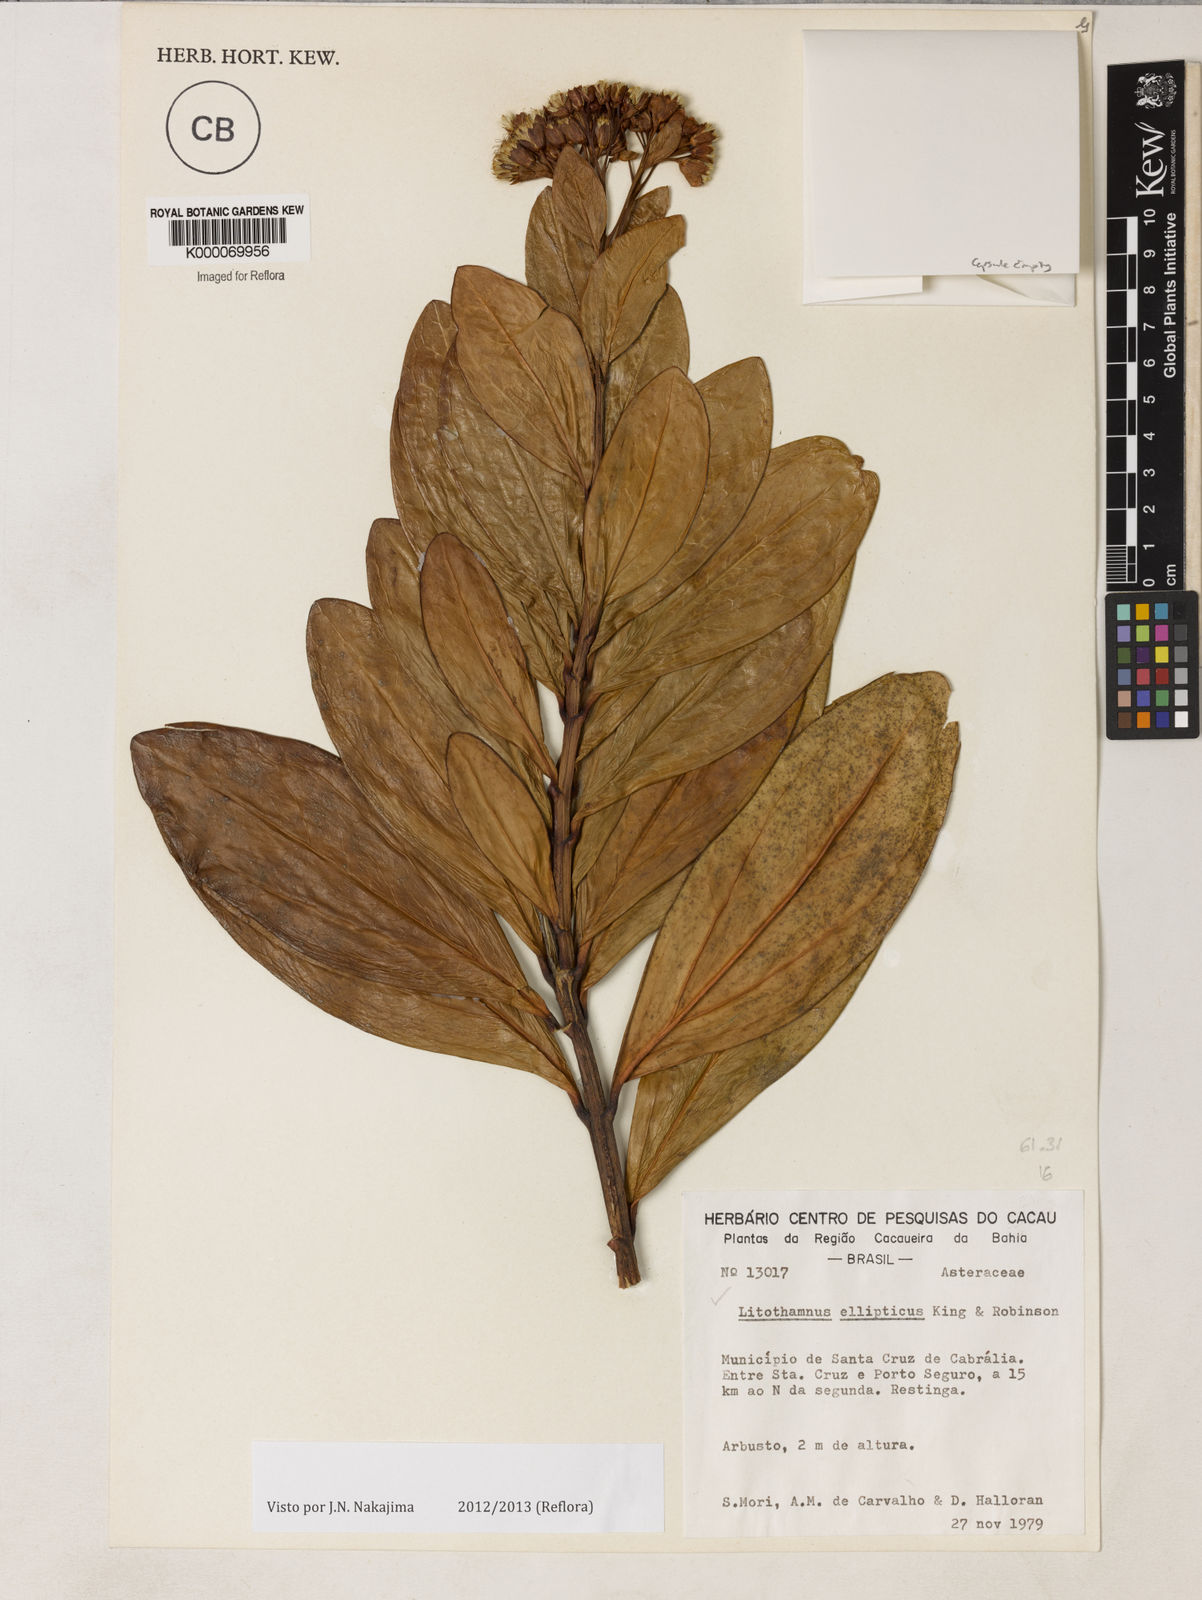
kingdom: Plantae
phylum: Tracheophyta
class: Magnoliopsida
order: Asterales
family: Asteraceae
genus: Litothamnus
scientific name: Litothamnus ellipticus
